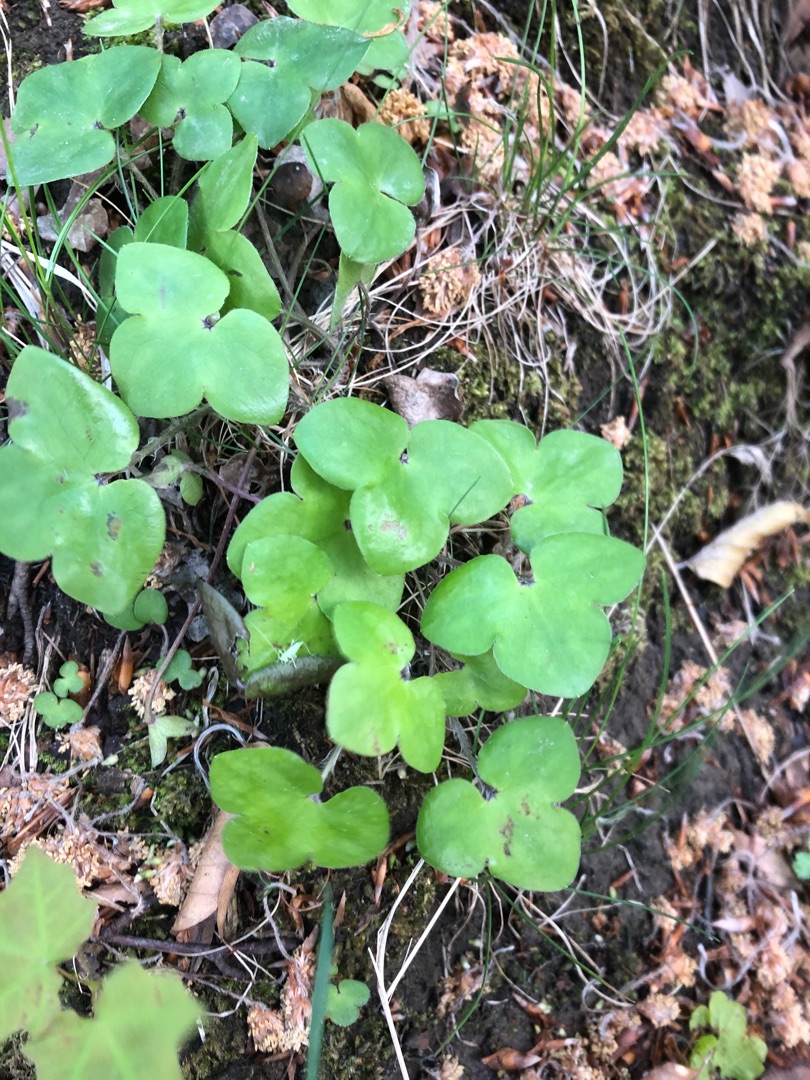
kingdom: Plantae
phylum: Tracheophyta
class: Magnoliopsida
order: Ranunculales
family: Ranunculaceae
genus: Hepatica
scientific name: Hepatica nobilis
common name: Blå anemone
